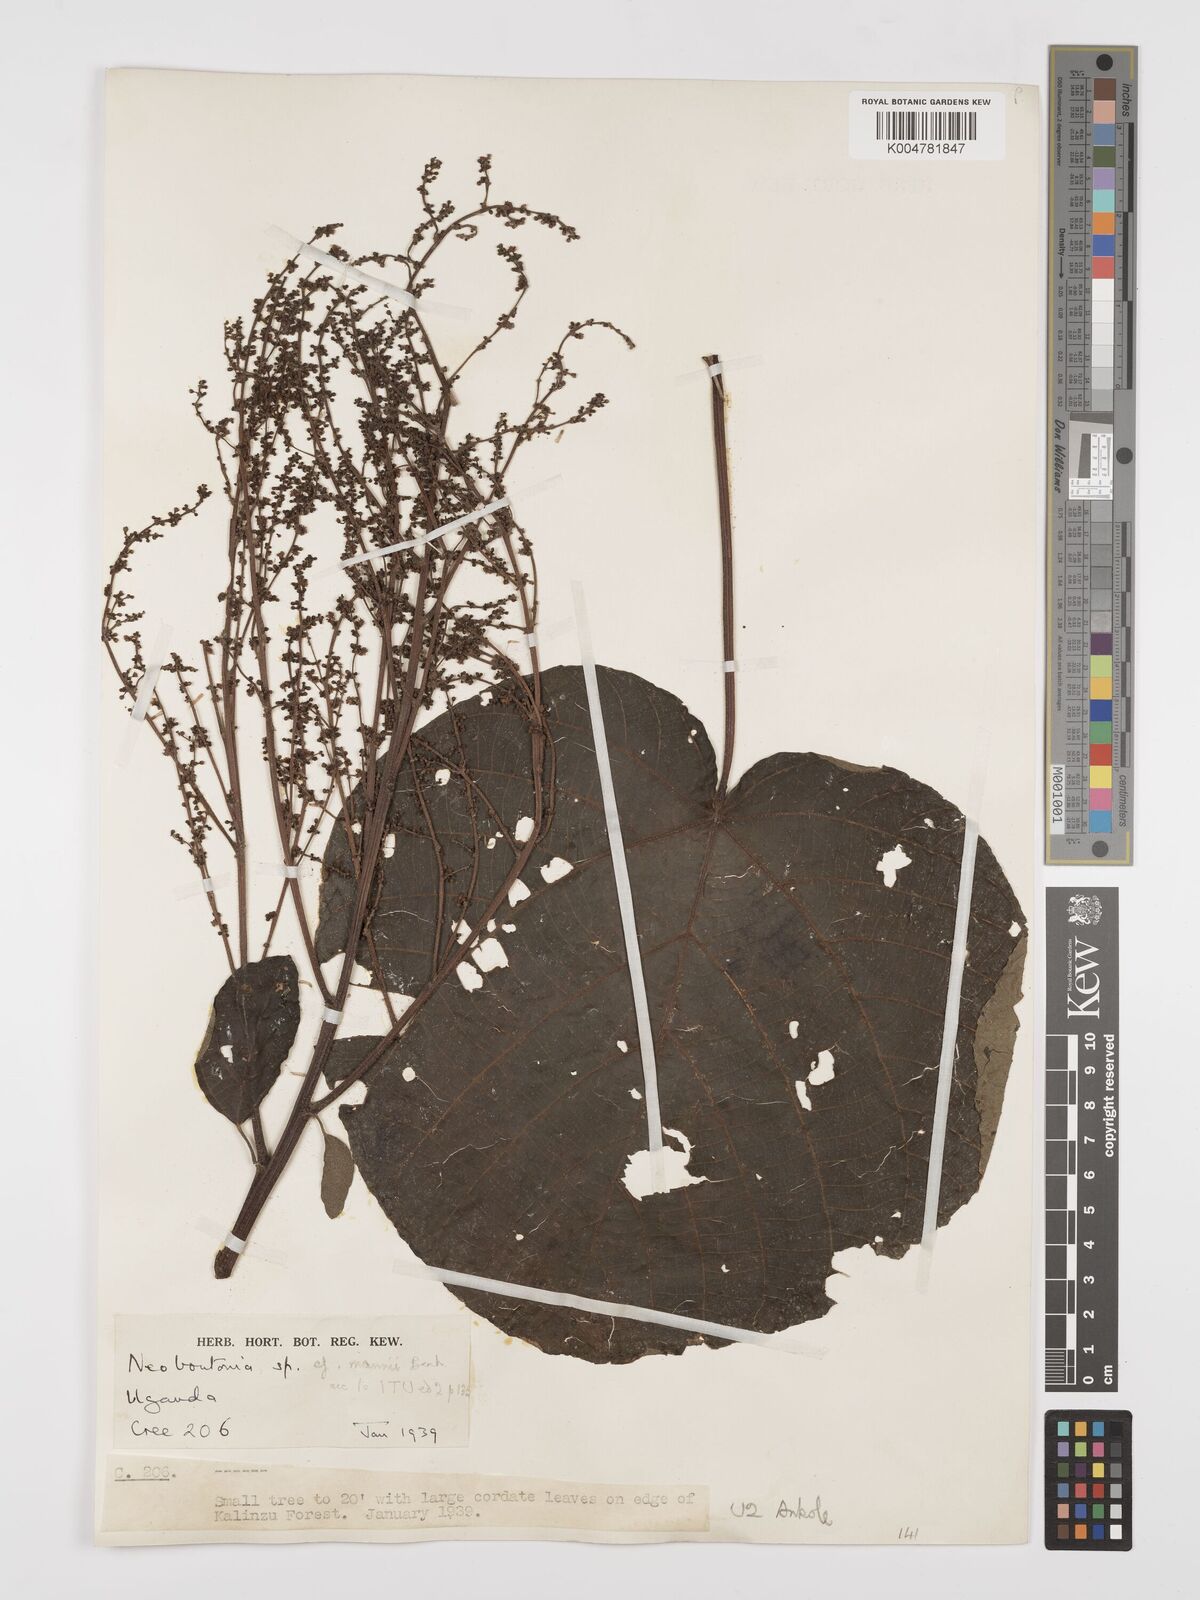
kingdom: Plantae
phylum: Tracheophyta
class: Magnoliopsida
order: Malpighiales
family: Euphorbiaceae
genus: Neoboutonia
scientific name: Neoboutonia melleri
